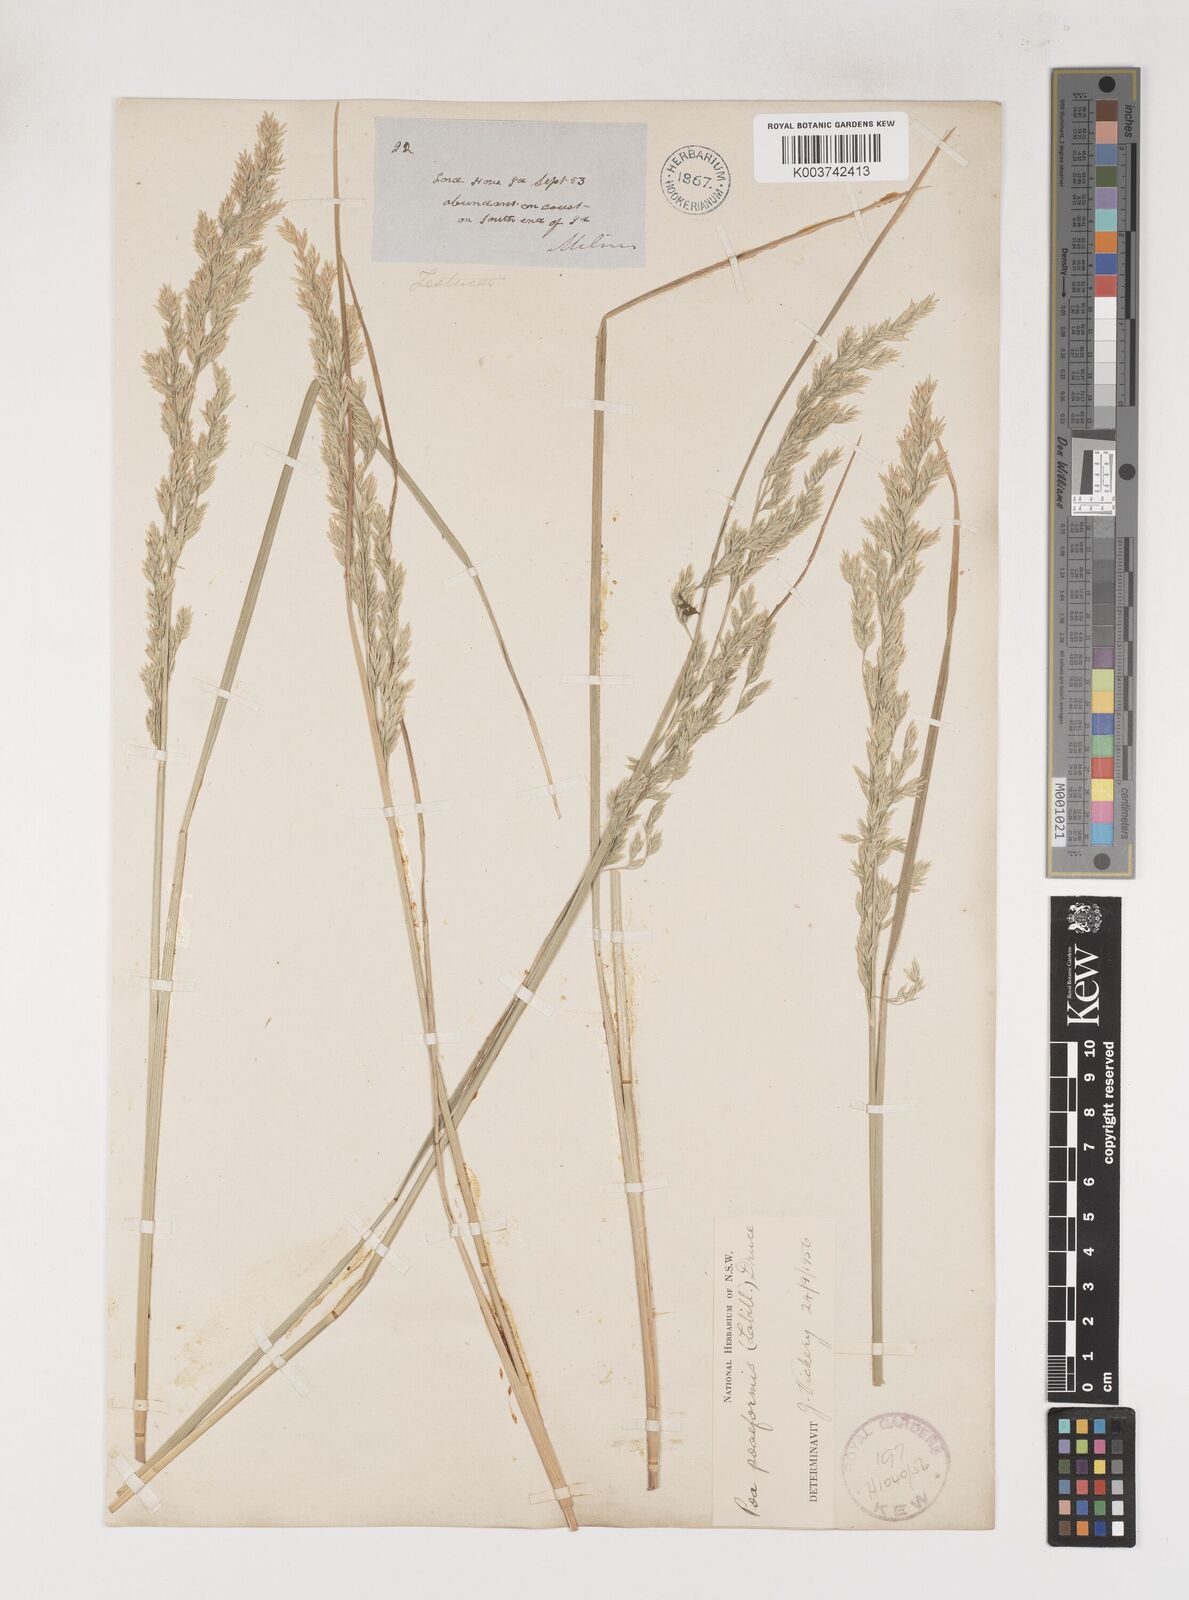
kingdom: Plantae
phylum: Tracheophyta
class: Liliopsida
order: Poales
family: Poaceae
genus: Poa
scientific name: Poa poiformis
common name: Tussock poa
